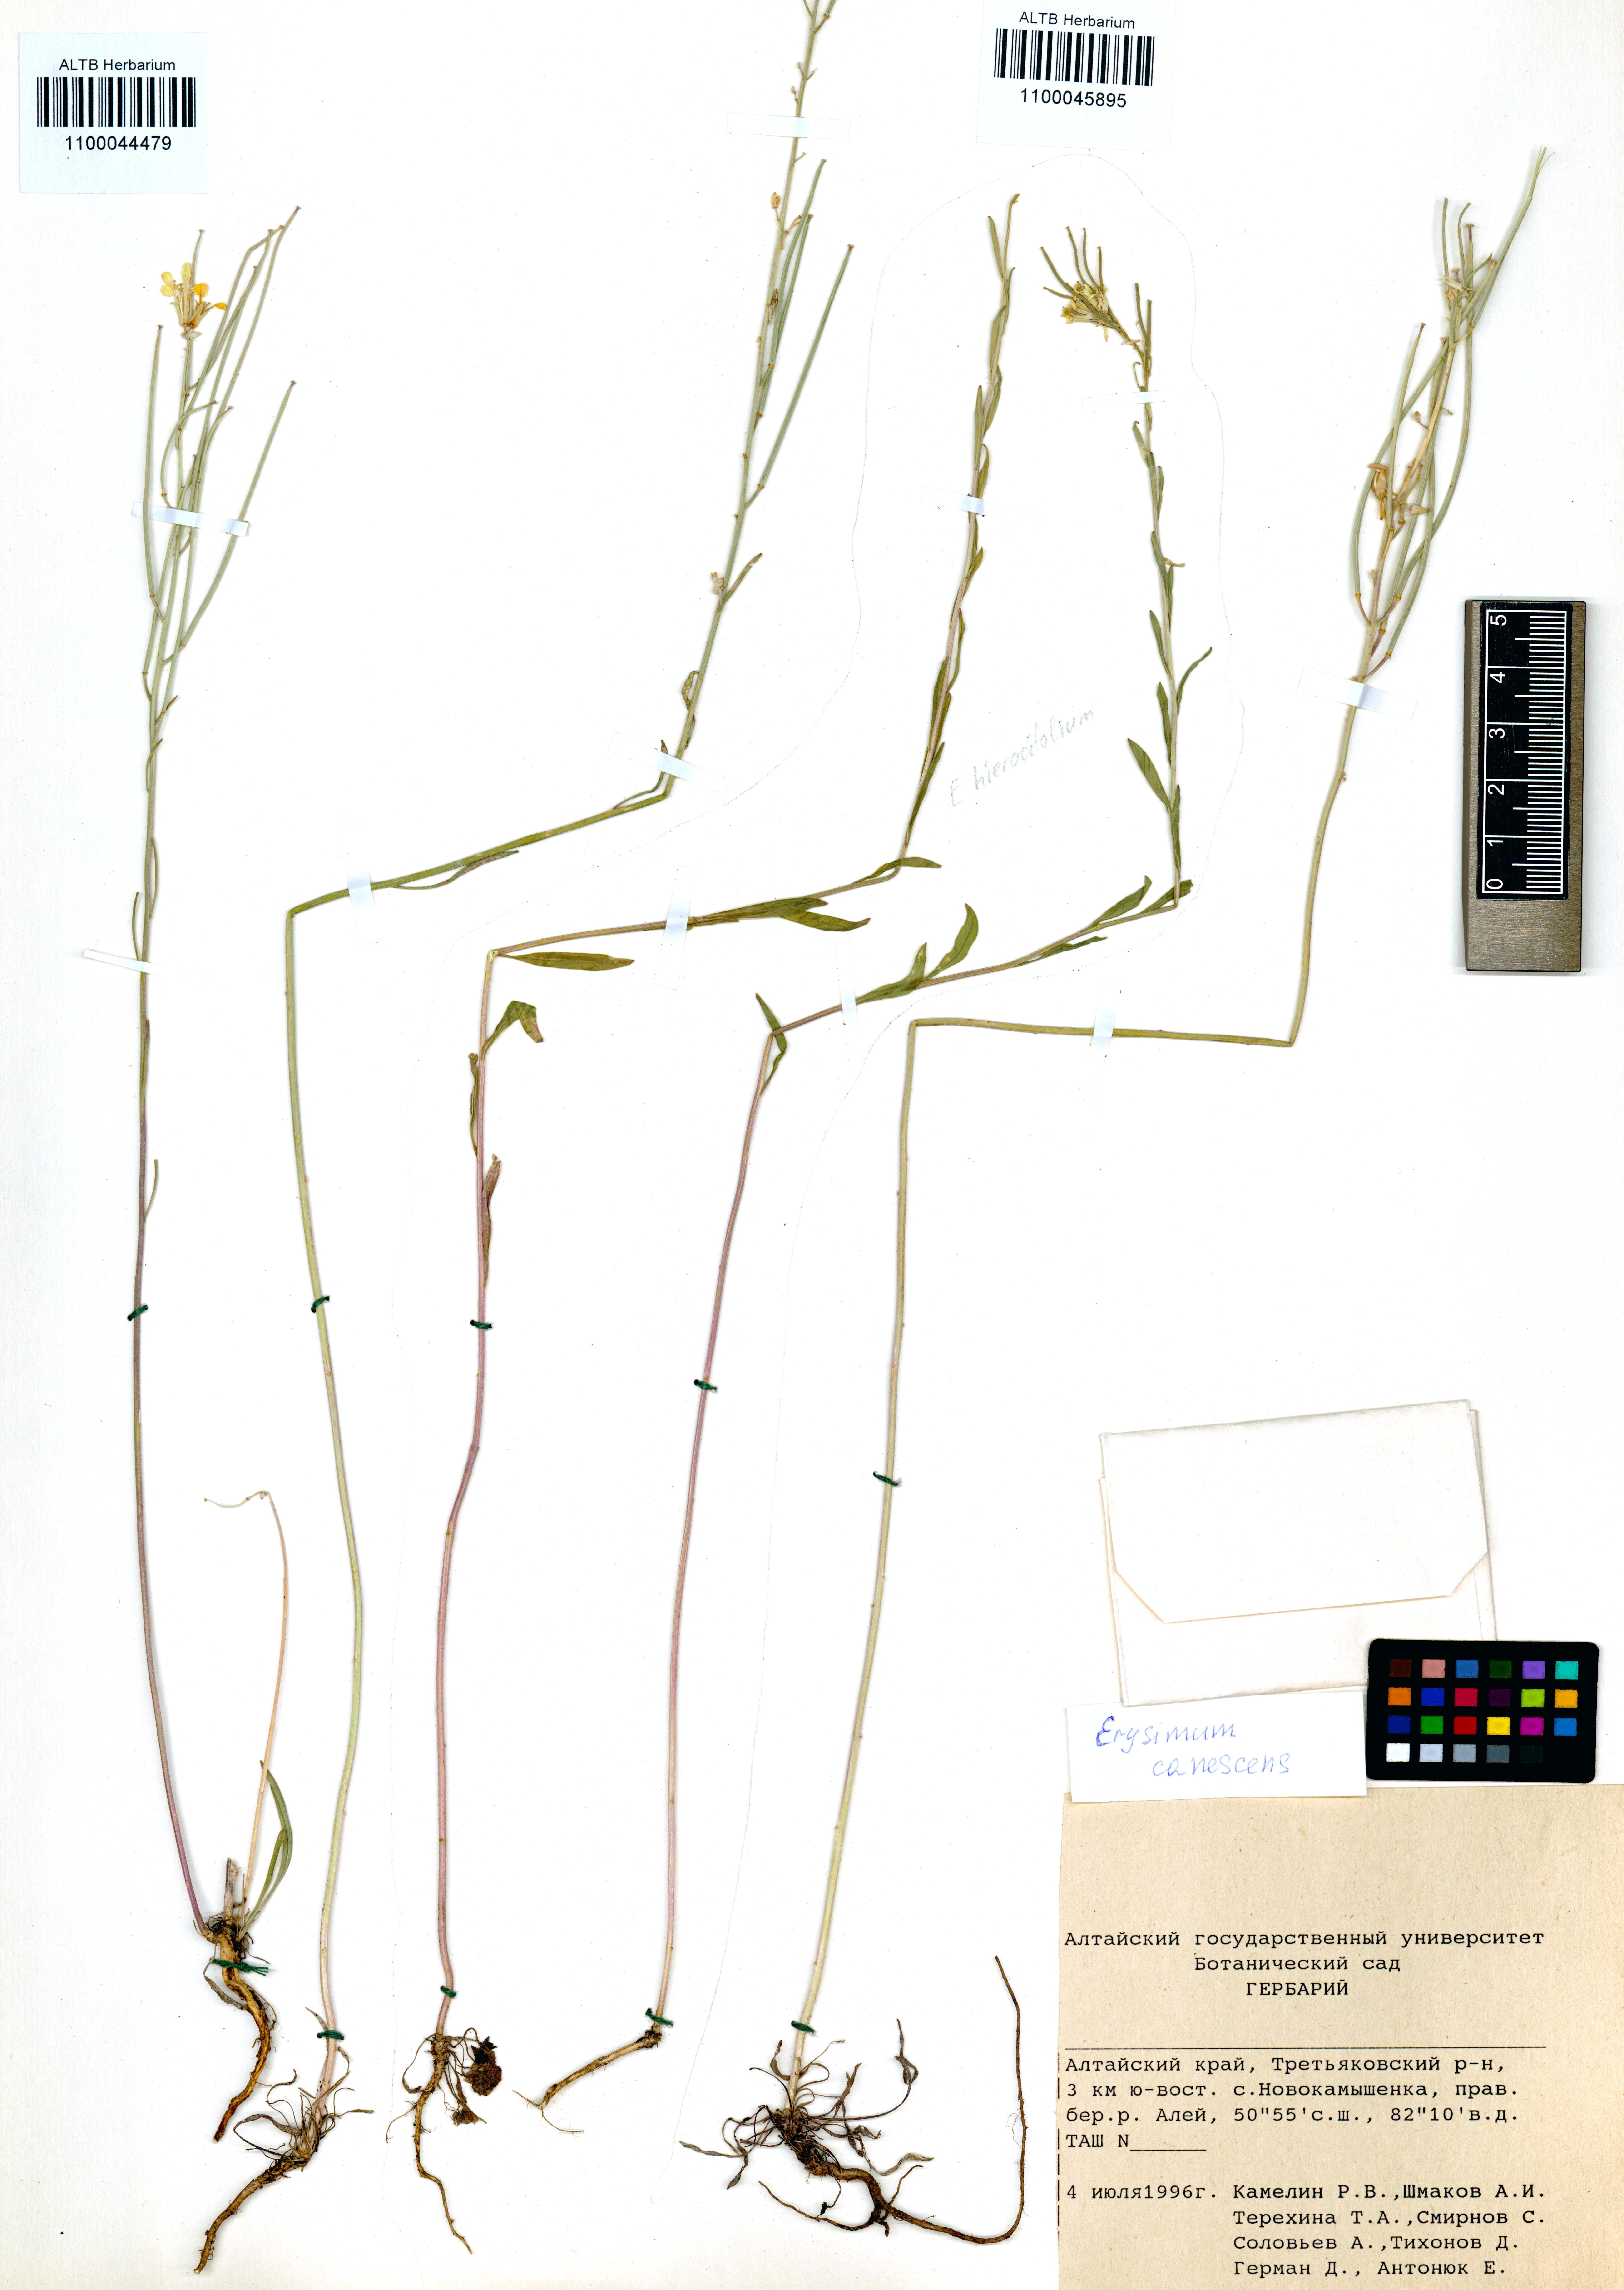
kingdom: Plantae
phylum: Tracheophyta
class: Magnoliopsida
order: Brassicales
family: Brassicaceae
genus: Erysimum
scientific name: Erysimum hieraciifolium
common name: European wallflower
